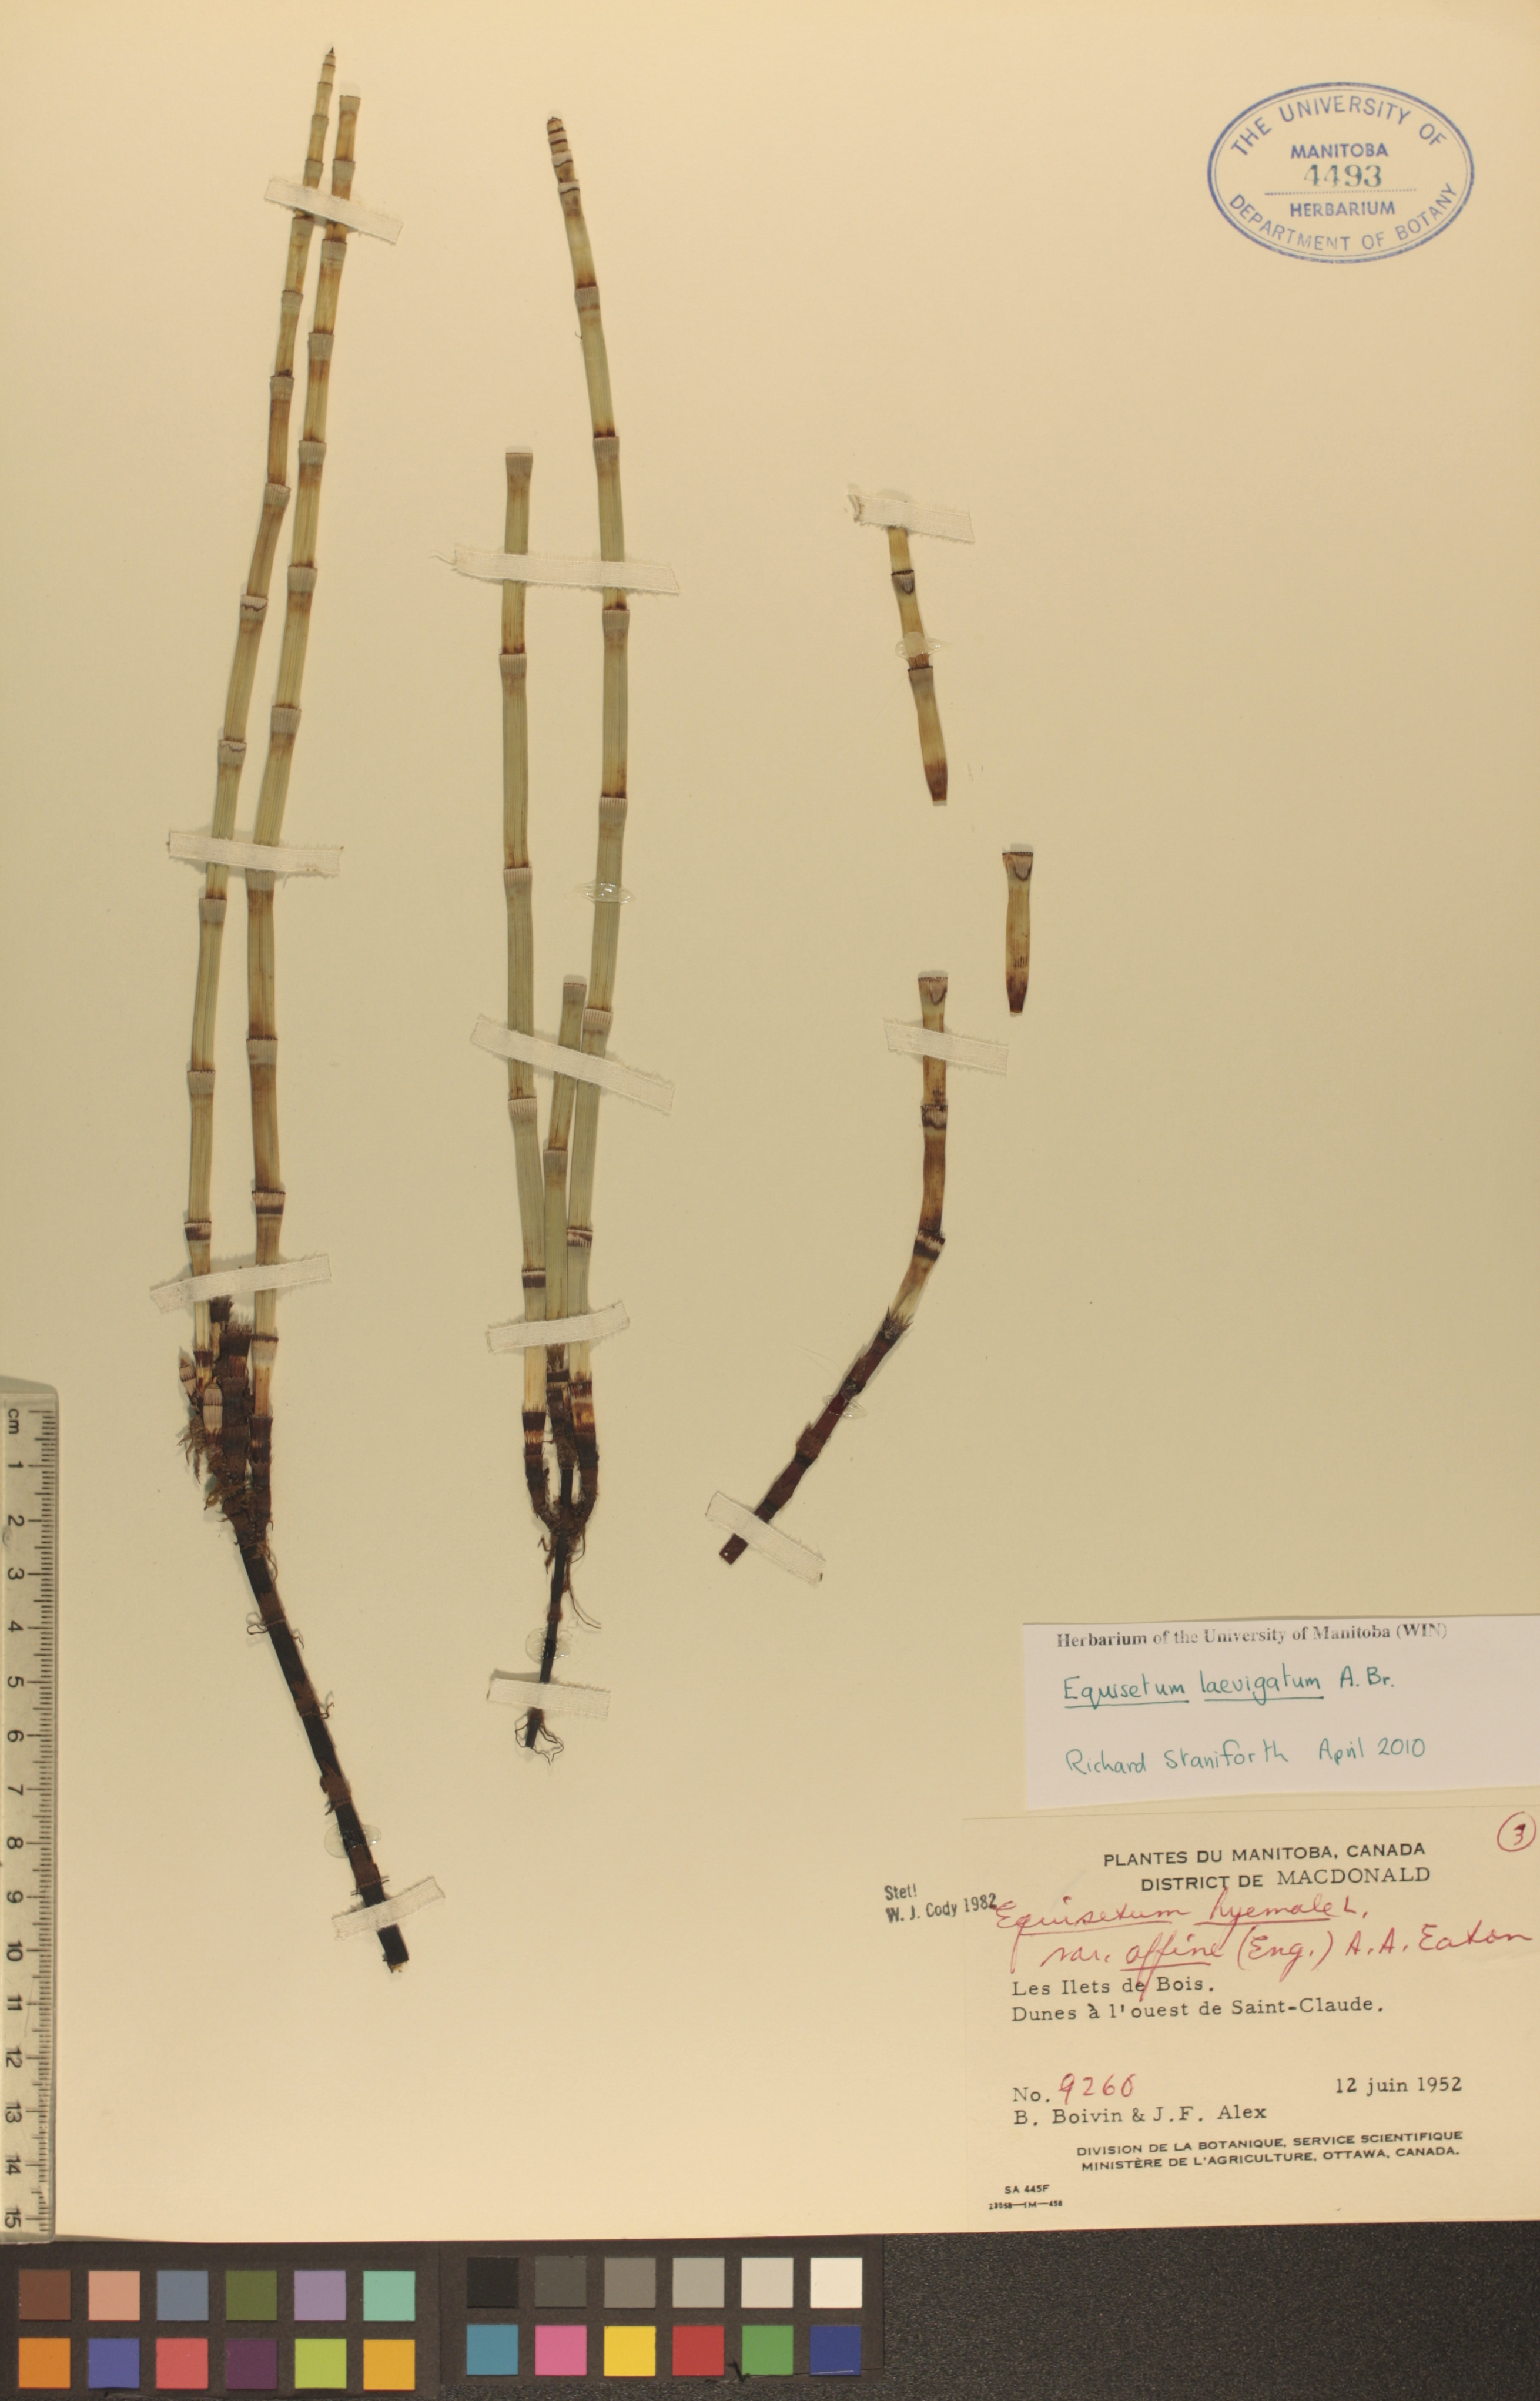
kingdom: Plantae
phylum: Tracheophyta
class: Polypodiopsida
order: Equisetales
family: Equisetaceae
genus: Equisetum
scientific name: Equisetum laevigatum
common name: Smooth scouring-rush
